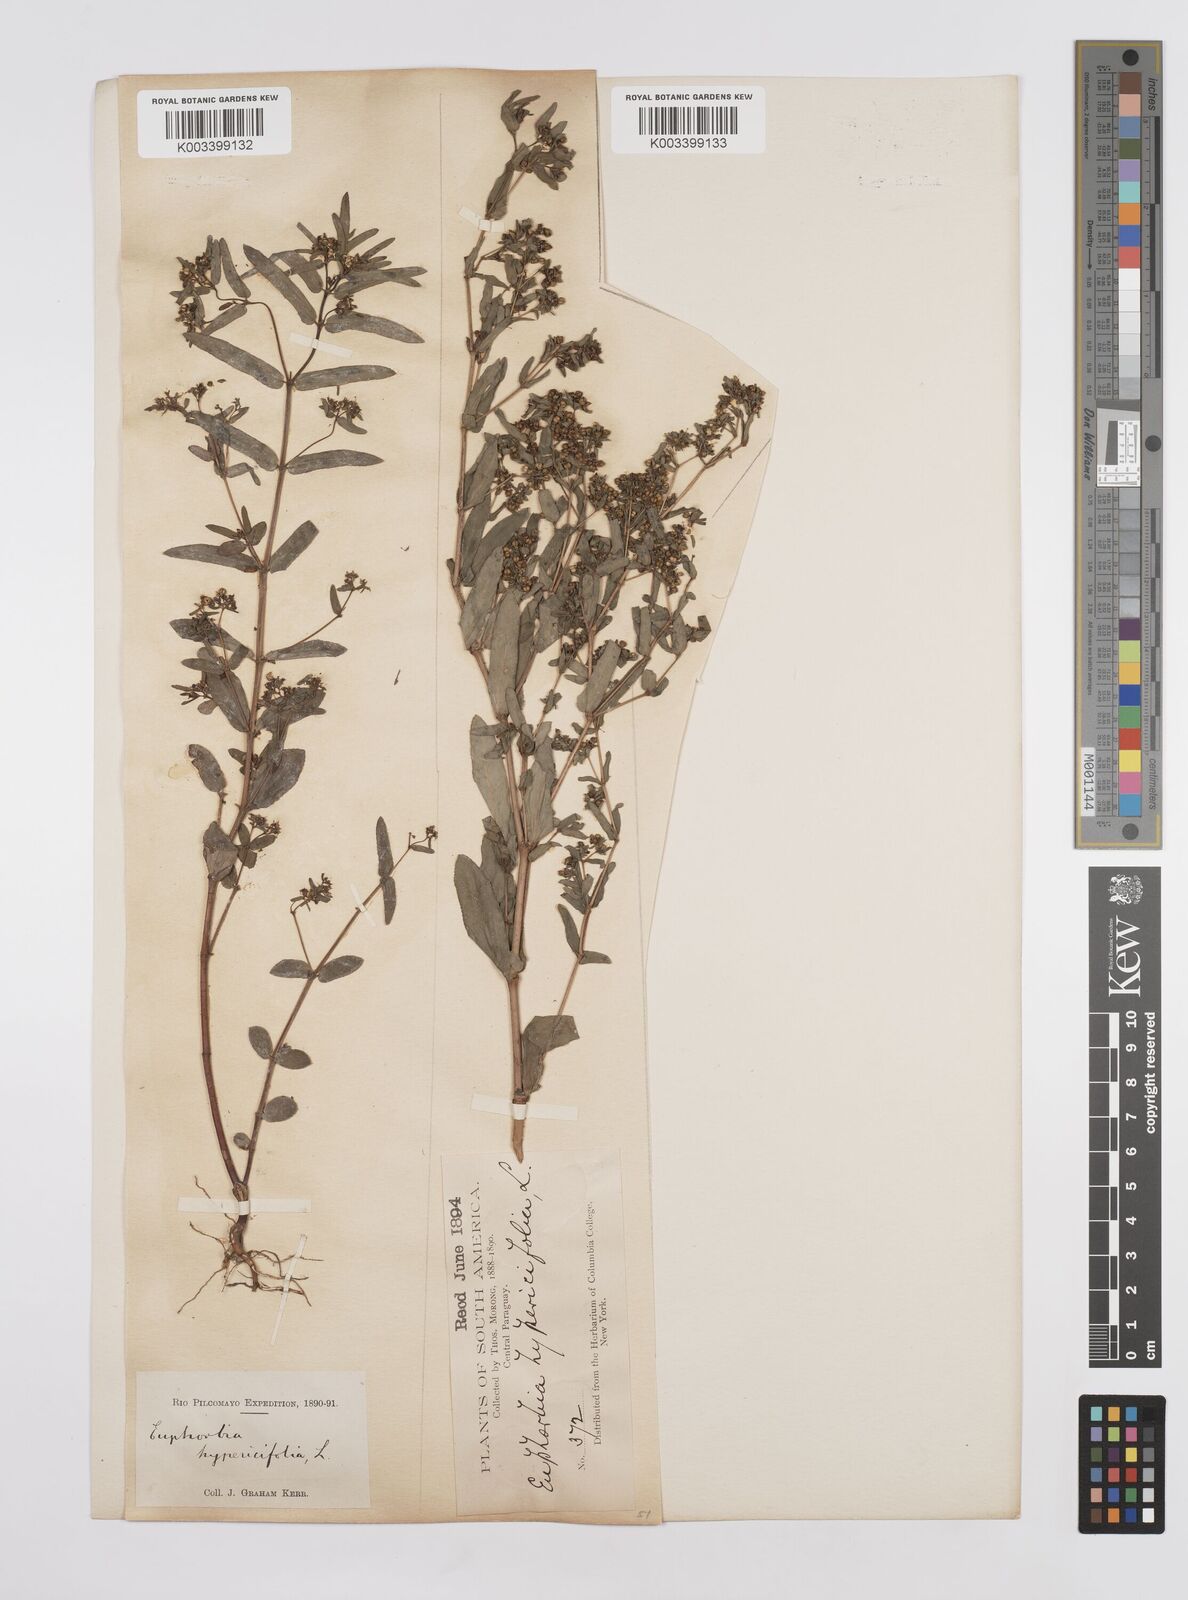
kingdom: Plantae
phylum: Tracheophyta
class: Magnoliopsida
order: Malpighiales
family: Euphorbiaceae
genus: Euphorbia
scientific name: Euphorbia hypericifolia
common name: Graceful sandmat
